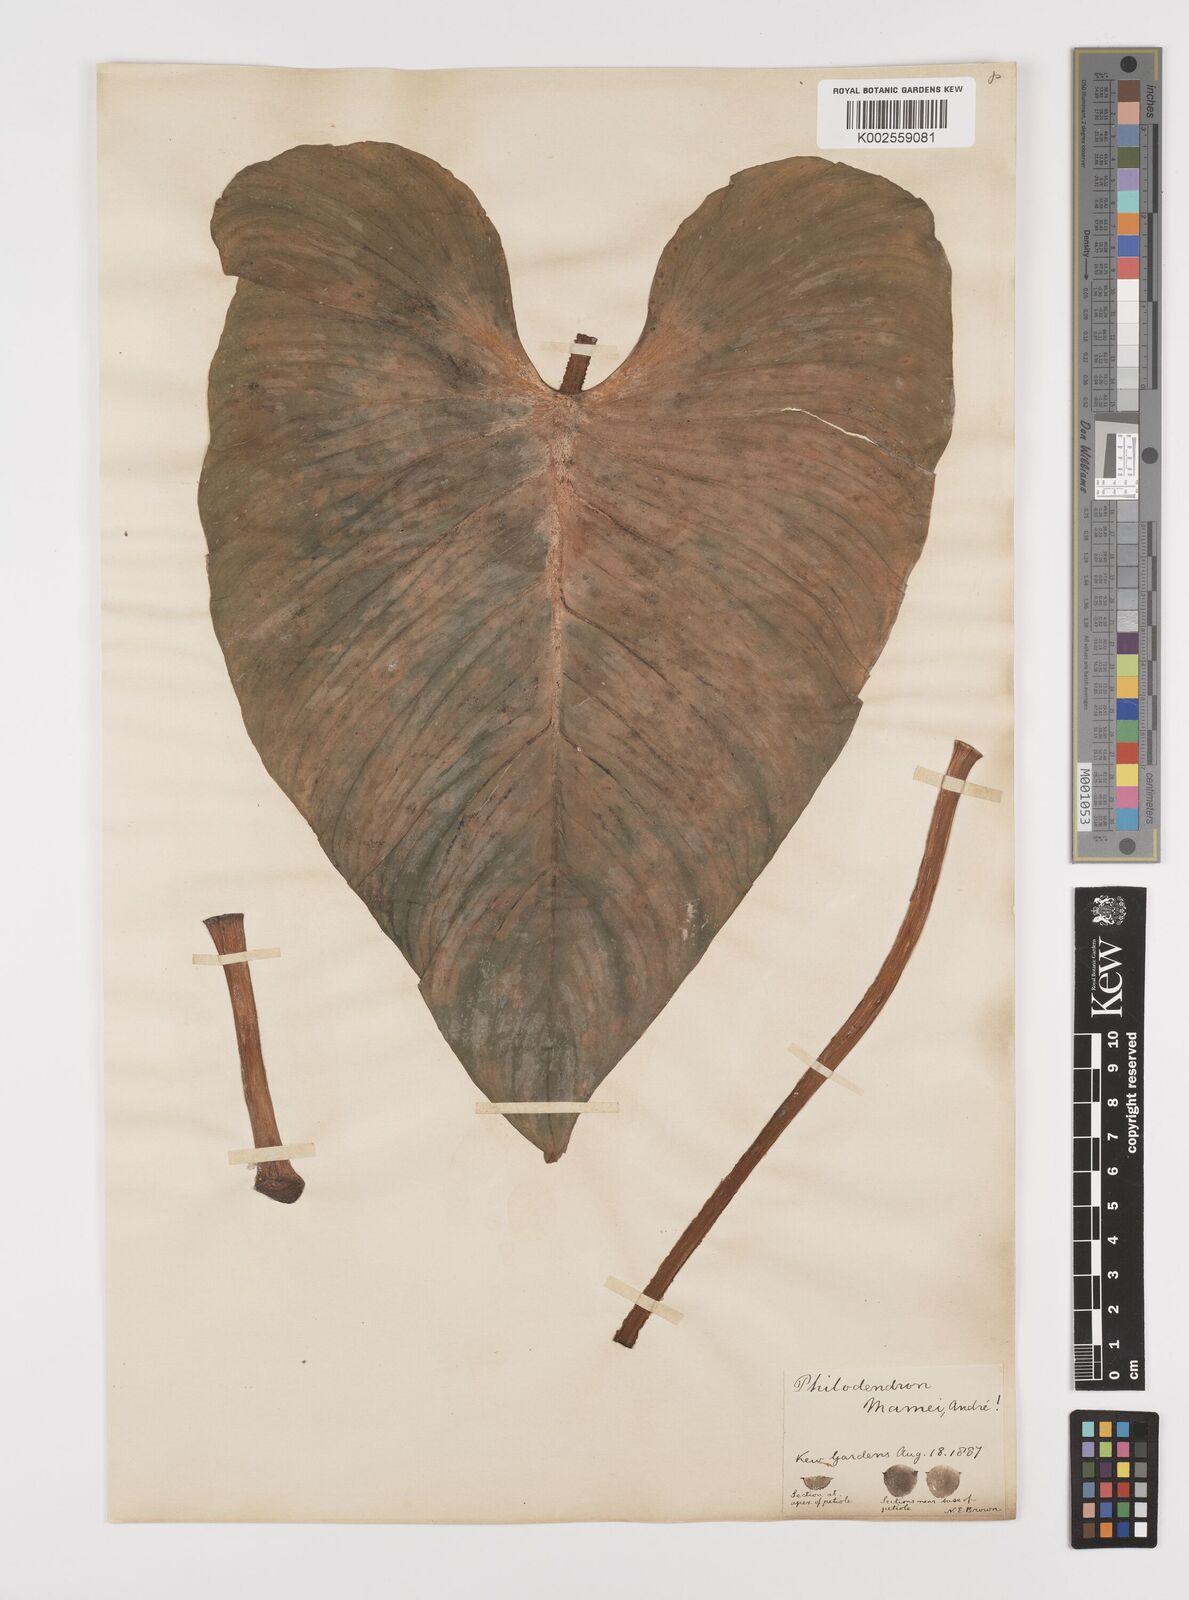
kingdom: Plantae
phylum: Tracheophyta
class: Liliopsida
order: Alismatales
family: Araceae
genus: Philodendron
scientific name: Philodendron mamei
